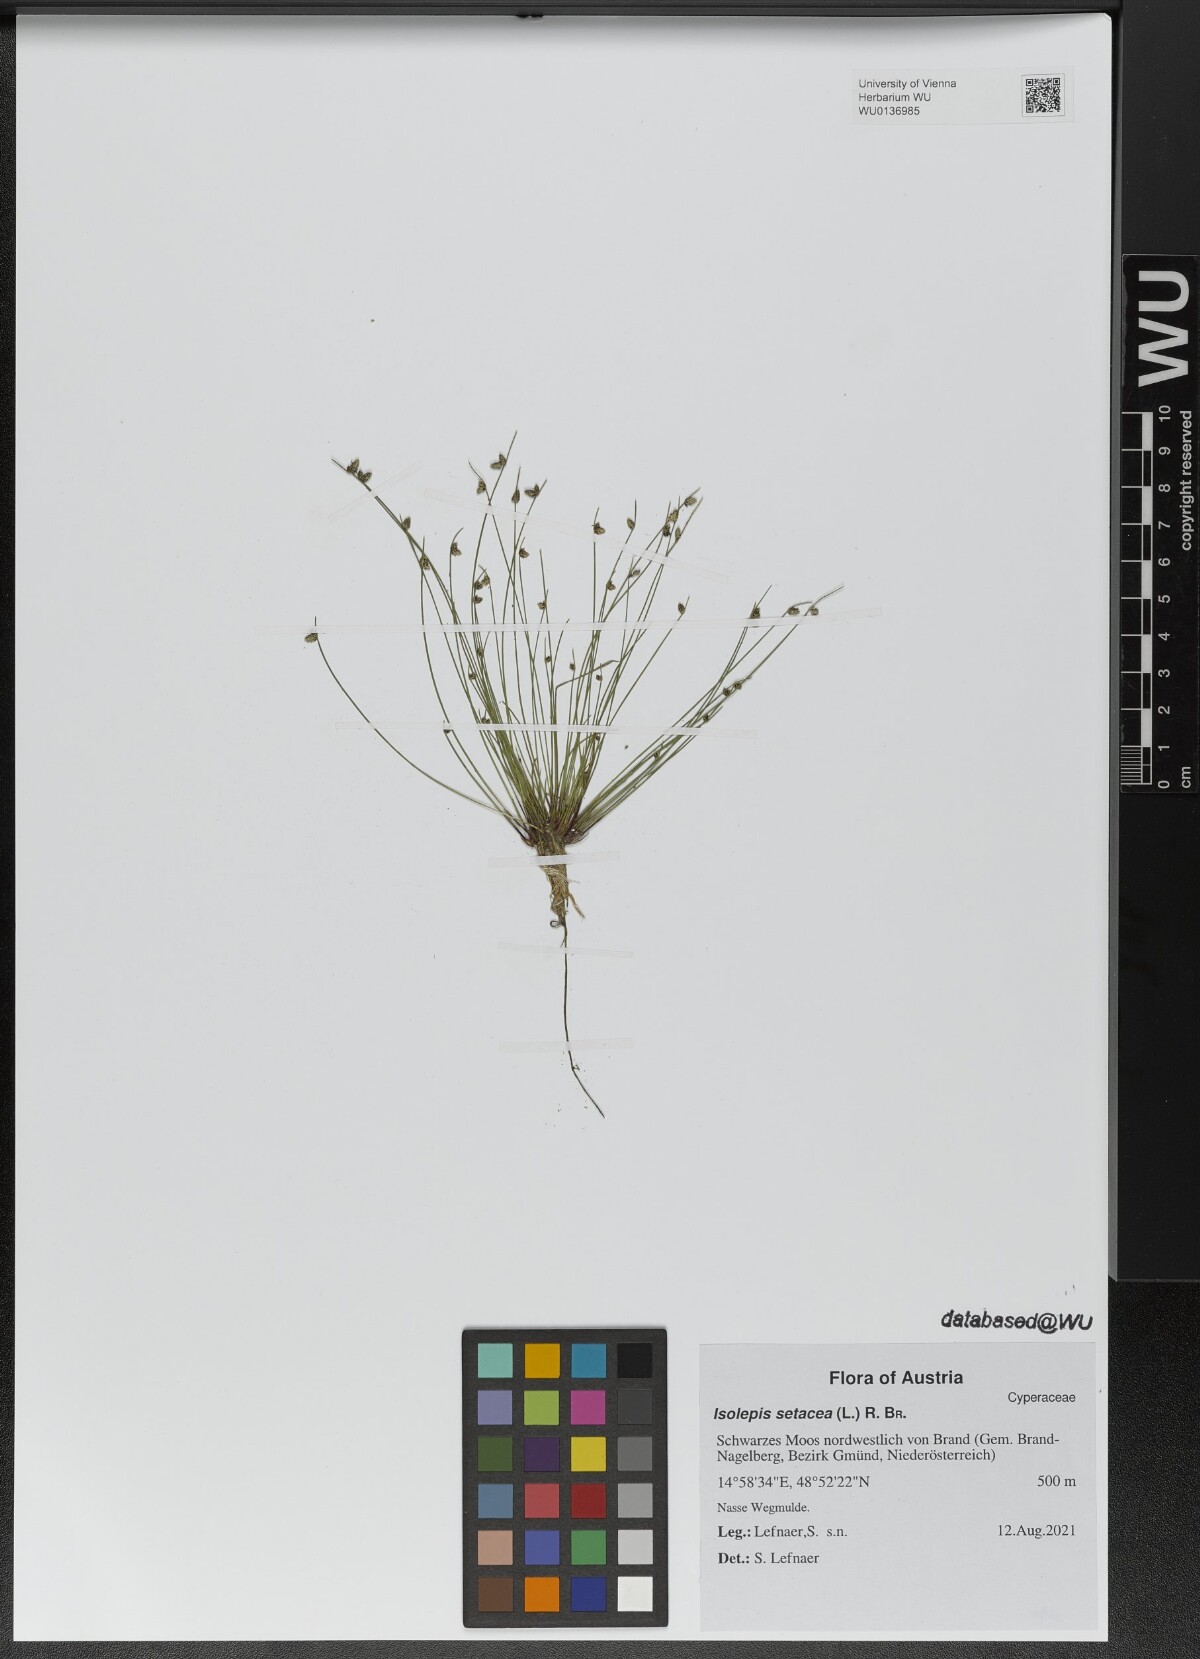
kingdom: Plantae
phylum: Tracheophyta
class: Liliopsida
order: Poales
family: Cyperaceae
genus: Isolepis
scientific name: Isolepis setacea
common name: Bristle club-rush
